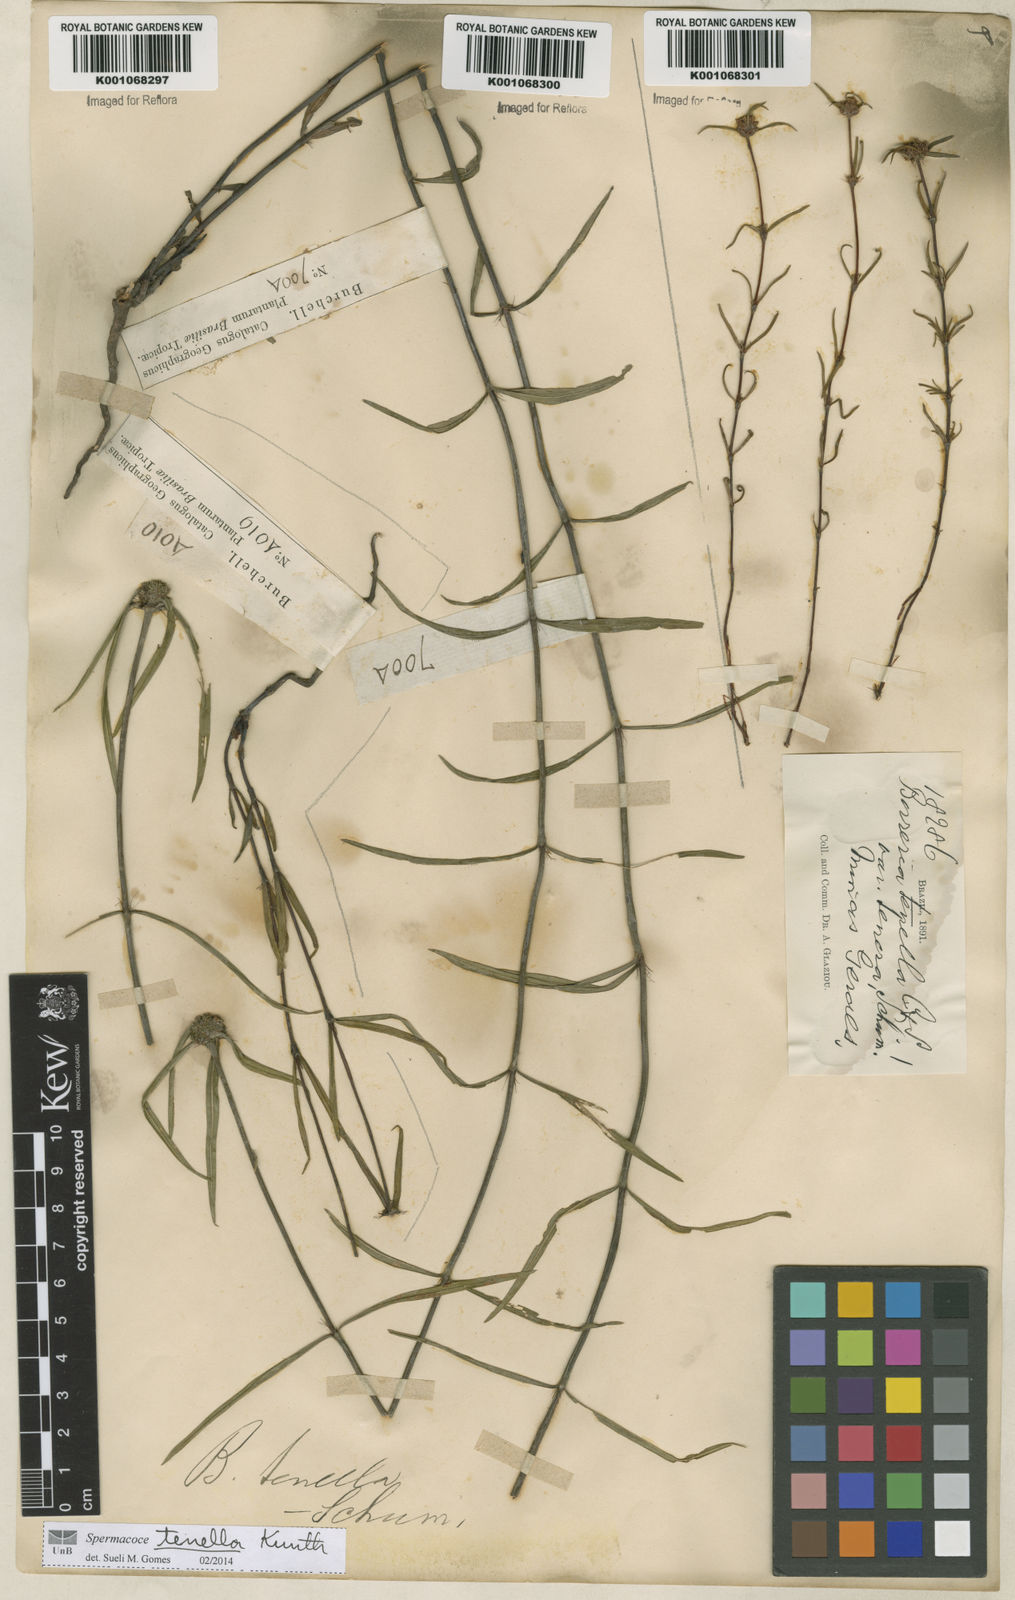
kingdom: Plantae
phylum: Tracheophyta
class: Magnoliopsida
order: Gentianales
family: Rubiaceae
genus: Spermacoce
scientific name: Spermacoce orinocensis
